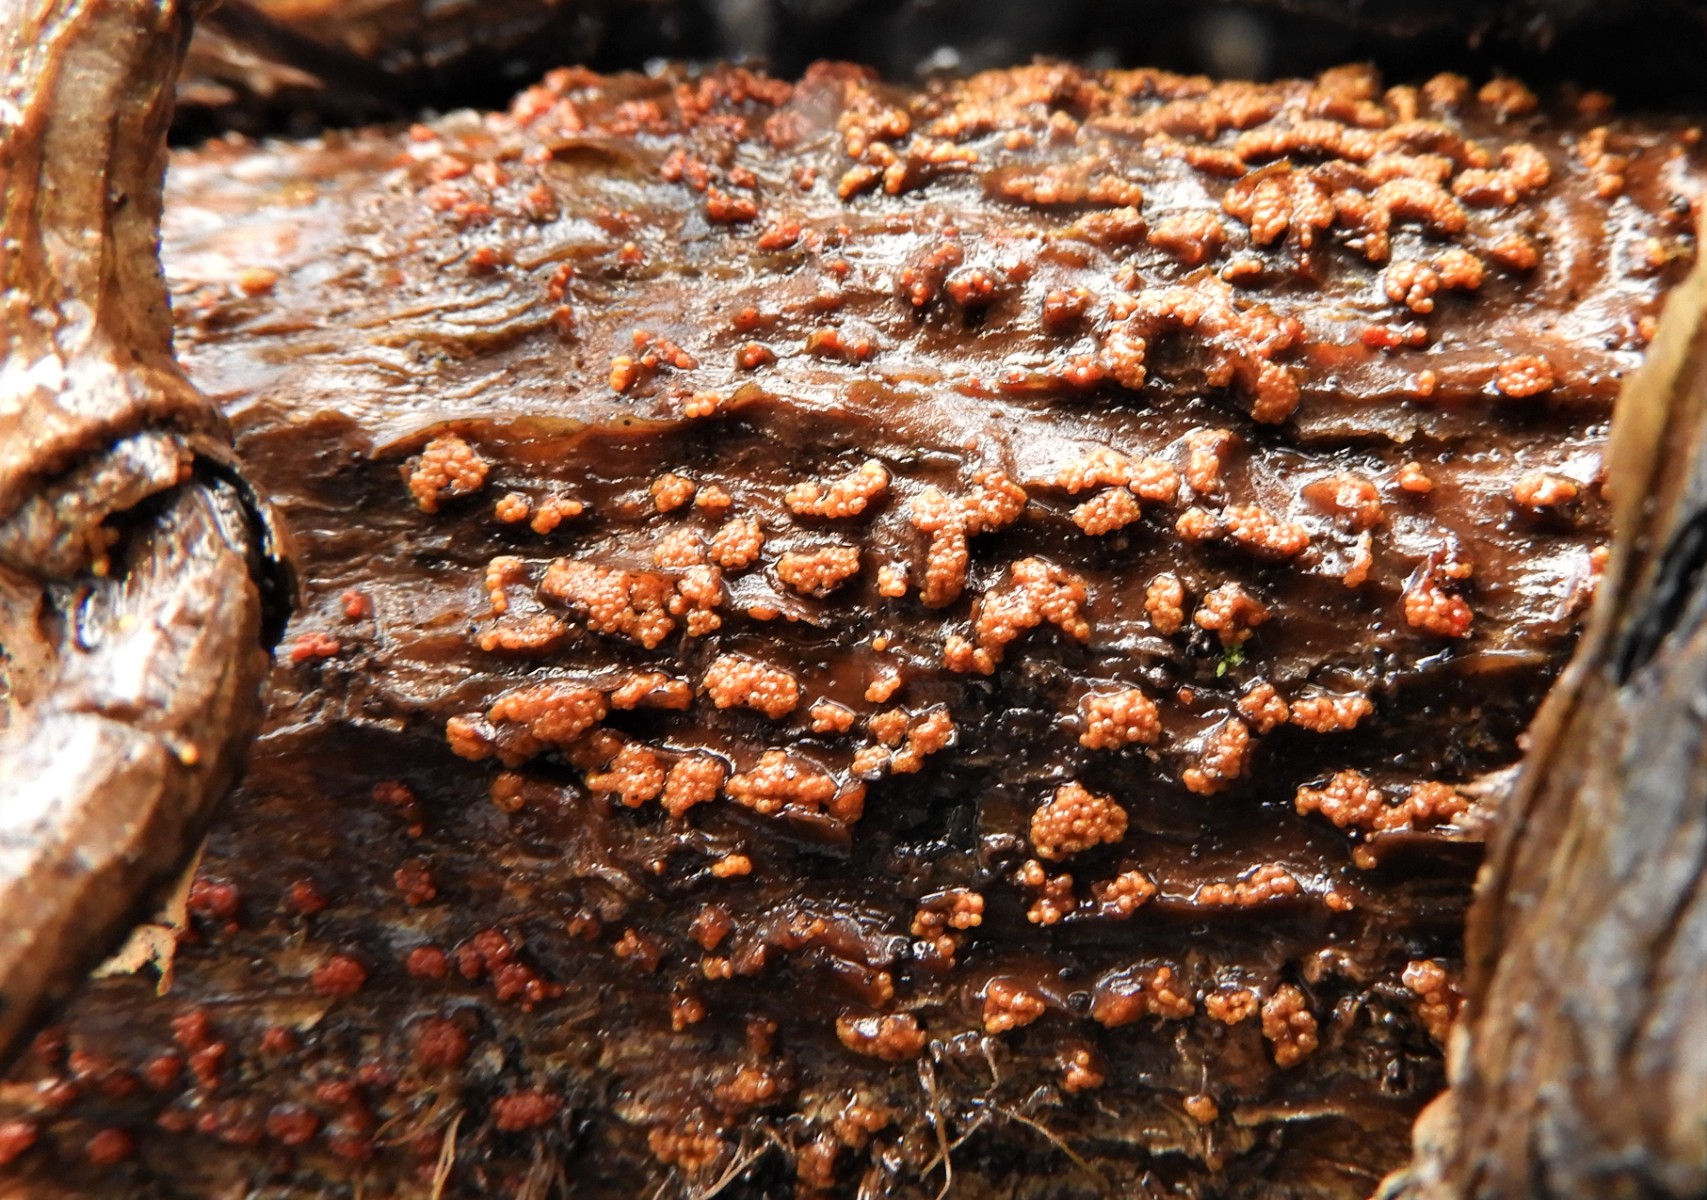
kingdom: Fungi
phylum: Ascomycota
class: Sordariomycetes
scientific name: Sordariomycetes
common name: kernesvampklassen
